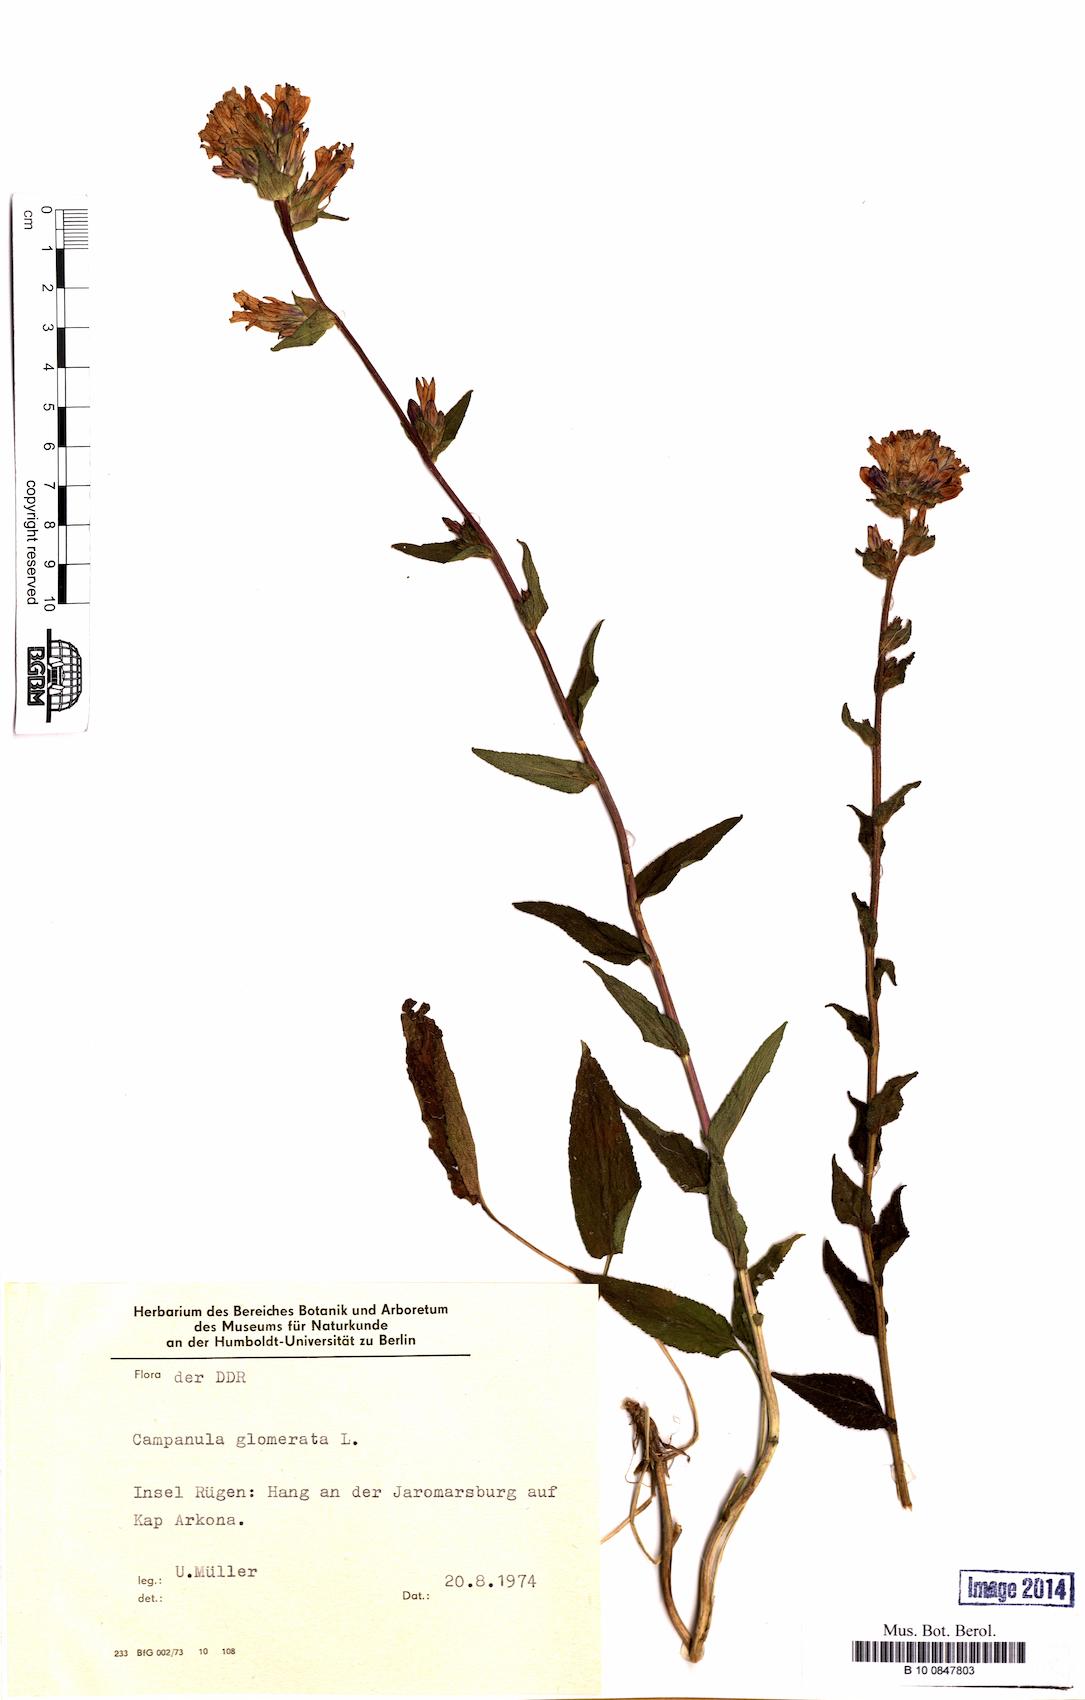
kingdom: Plantae
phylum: Tracheophyta
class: Magnoliopsida
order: Asterales
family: Campanulaceae
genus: Campanula
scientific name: Campanula glomerata
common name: Clustered bellflower
